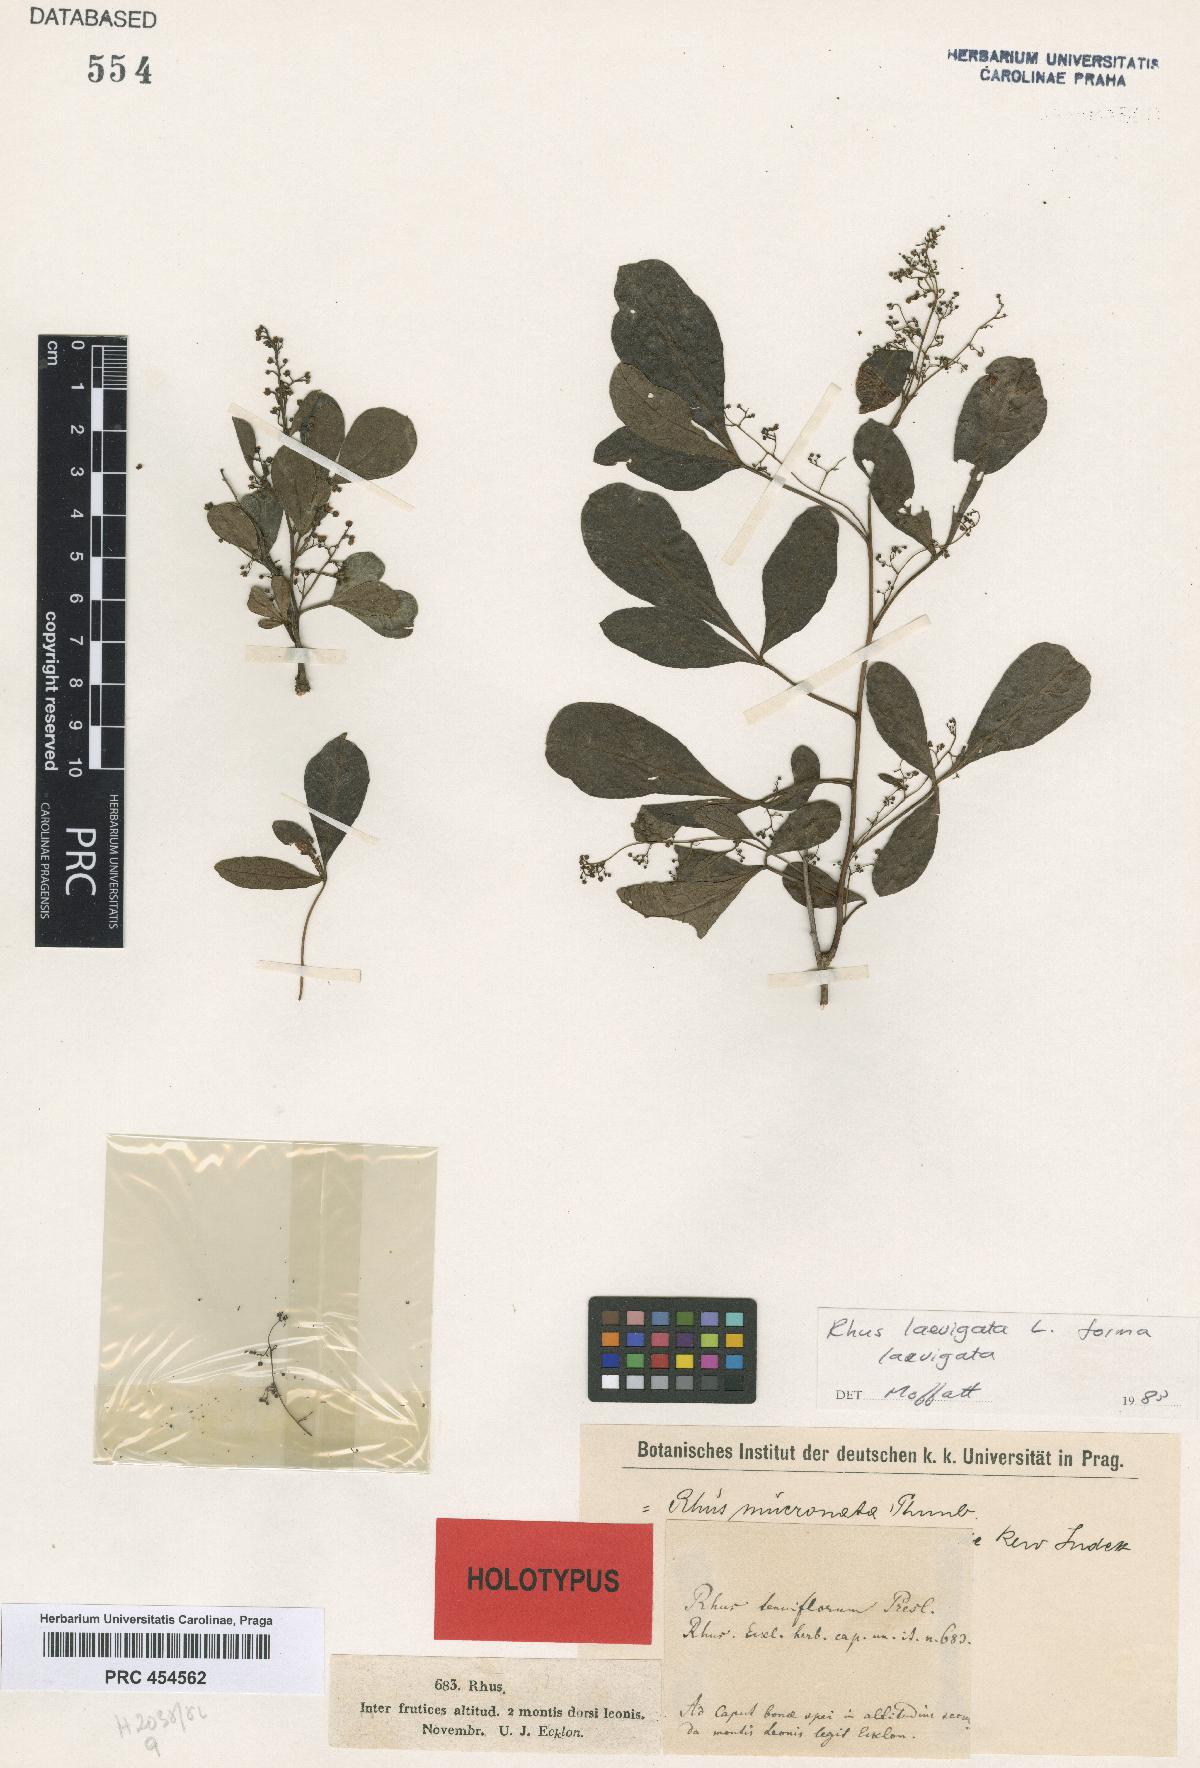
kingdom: Plantae
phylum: Tracheophyta
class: Magnoliopsida
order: Sapindales
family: Anacardiaceae
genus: Searsia
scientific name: Searsia
